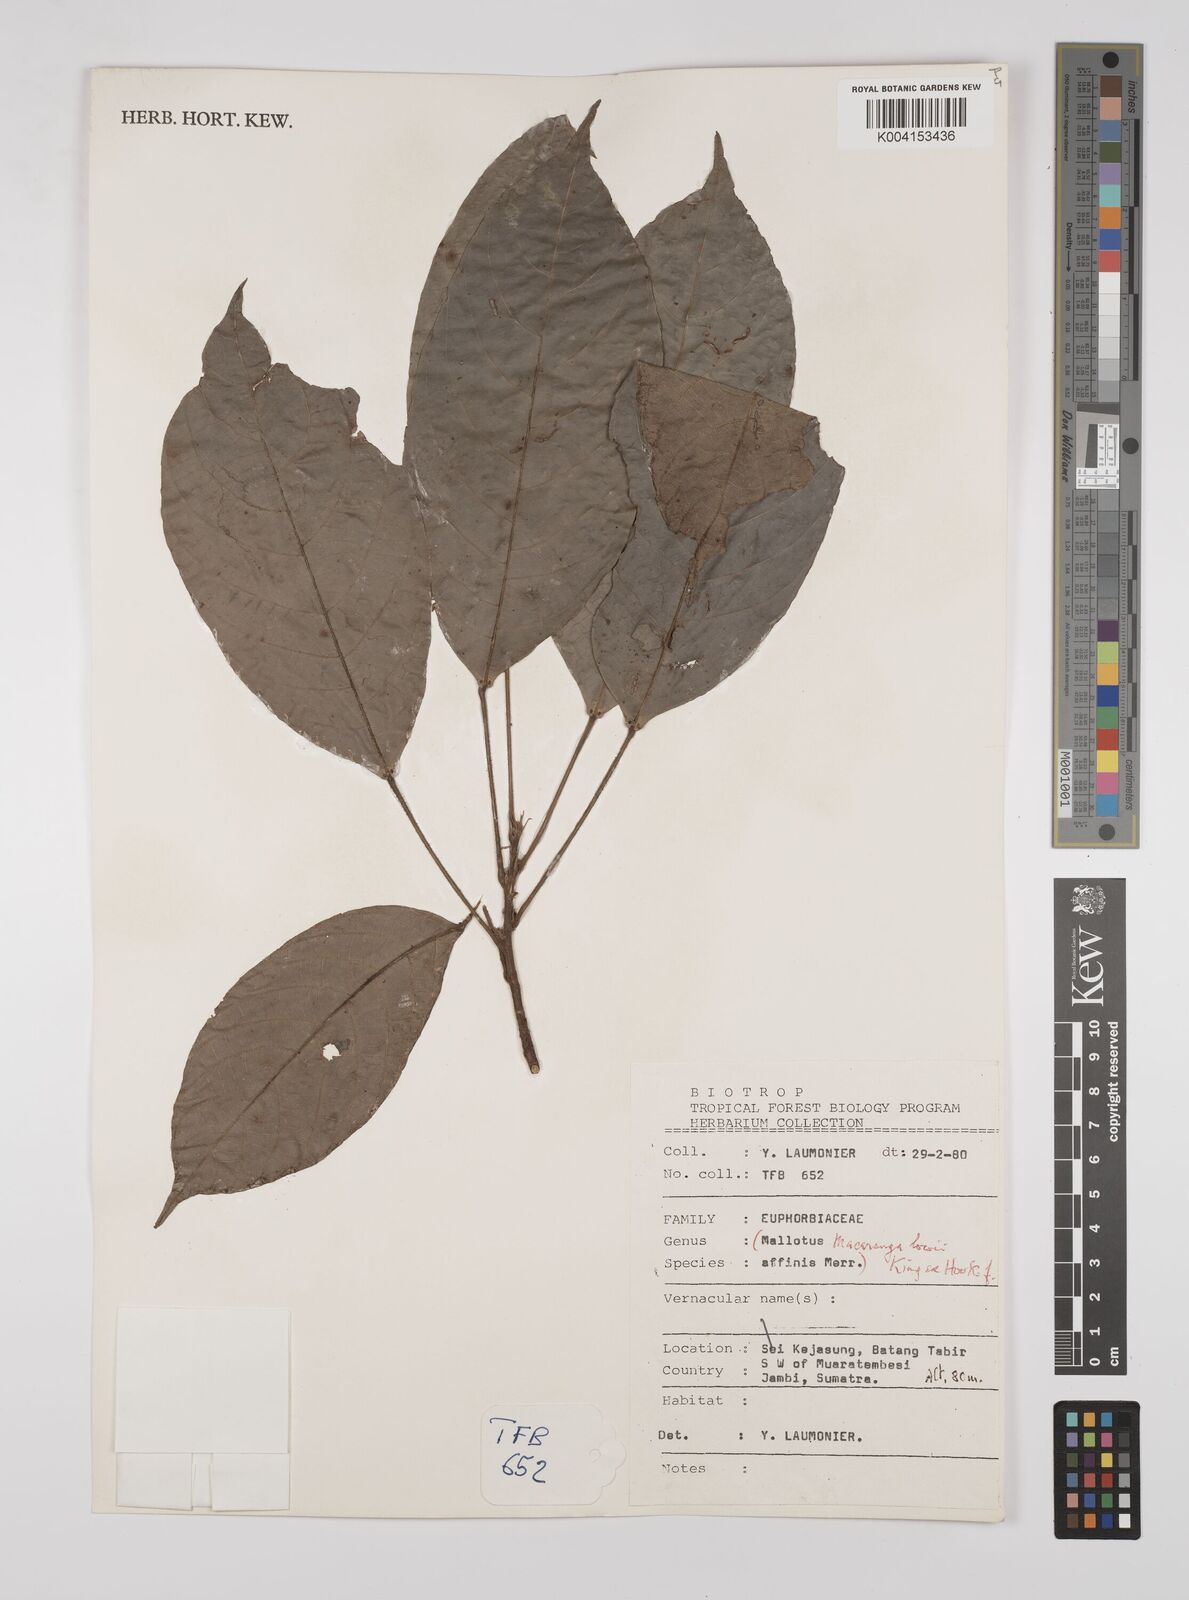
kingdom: Plantae
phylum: Tracheophyta
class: Magnoliopsida
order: Malpighiales
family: Euphorbiaceae
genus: Macaranga
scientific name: Macaranga lowii
